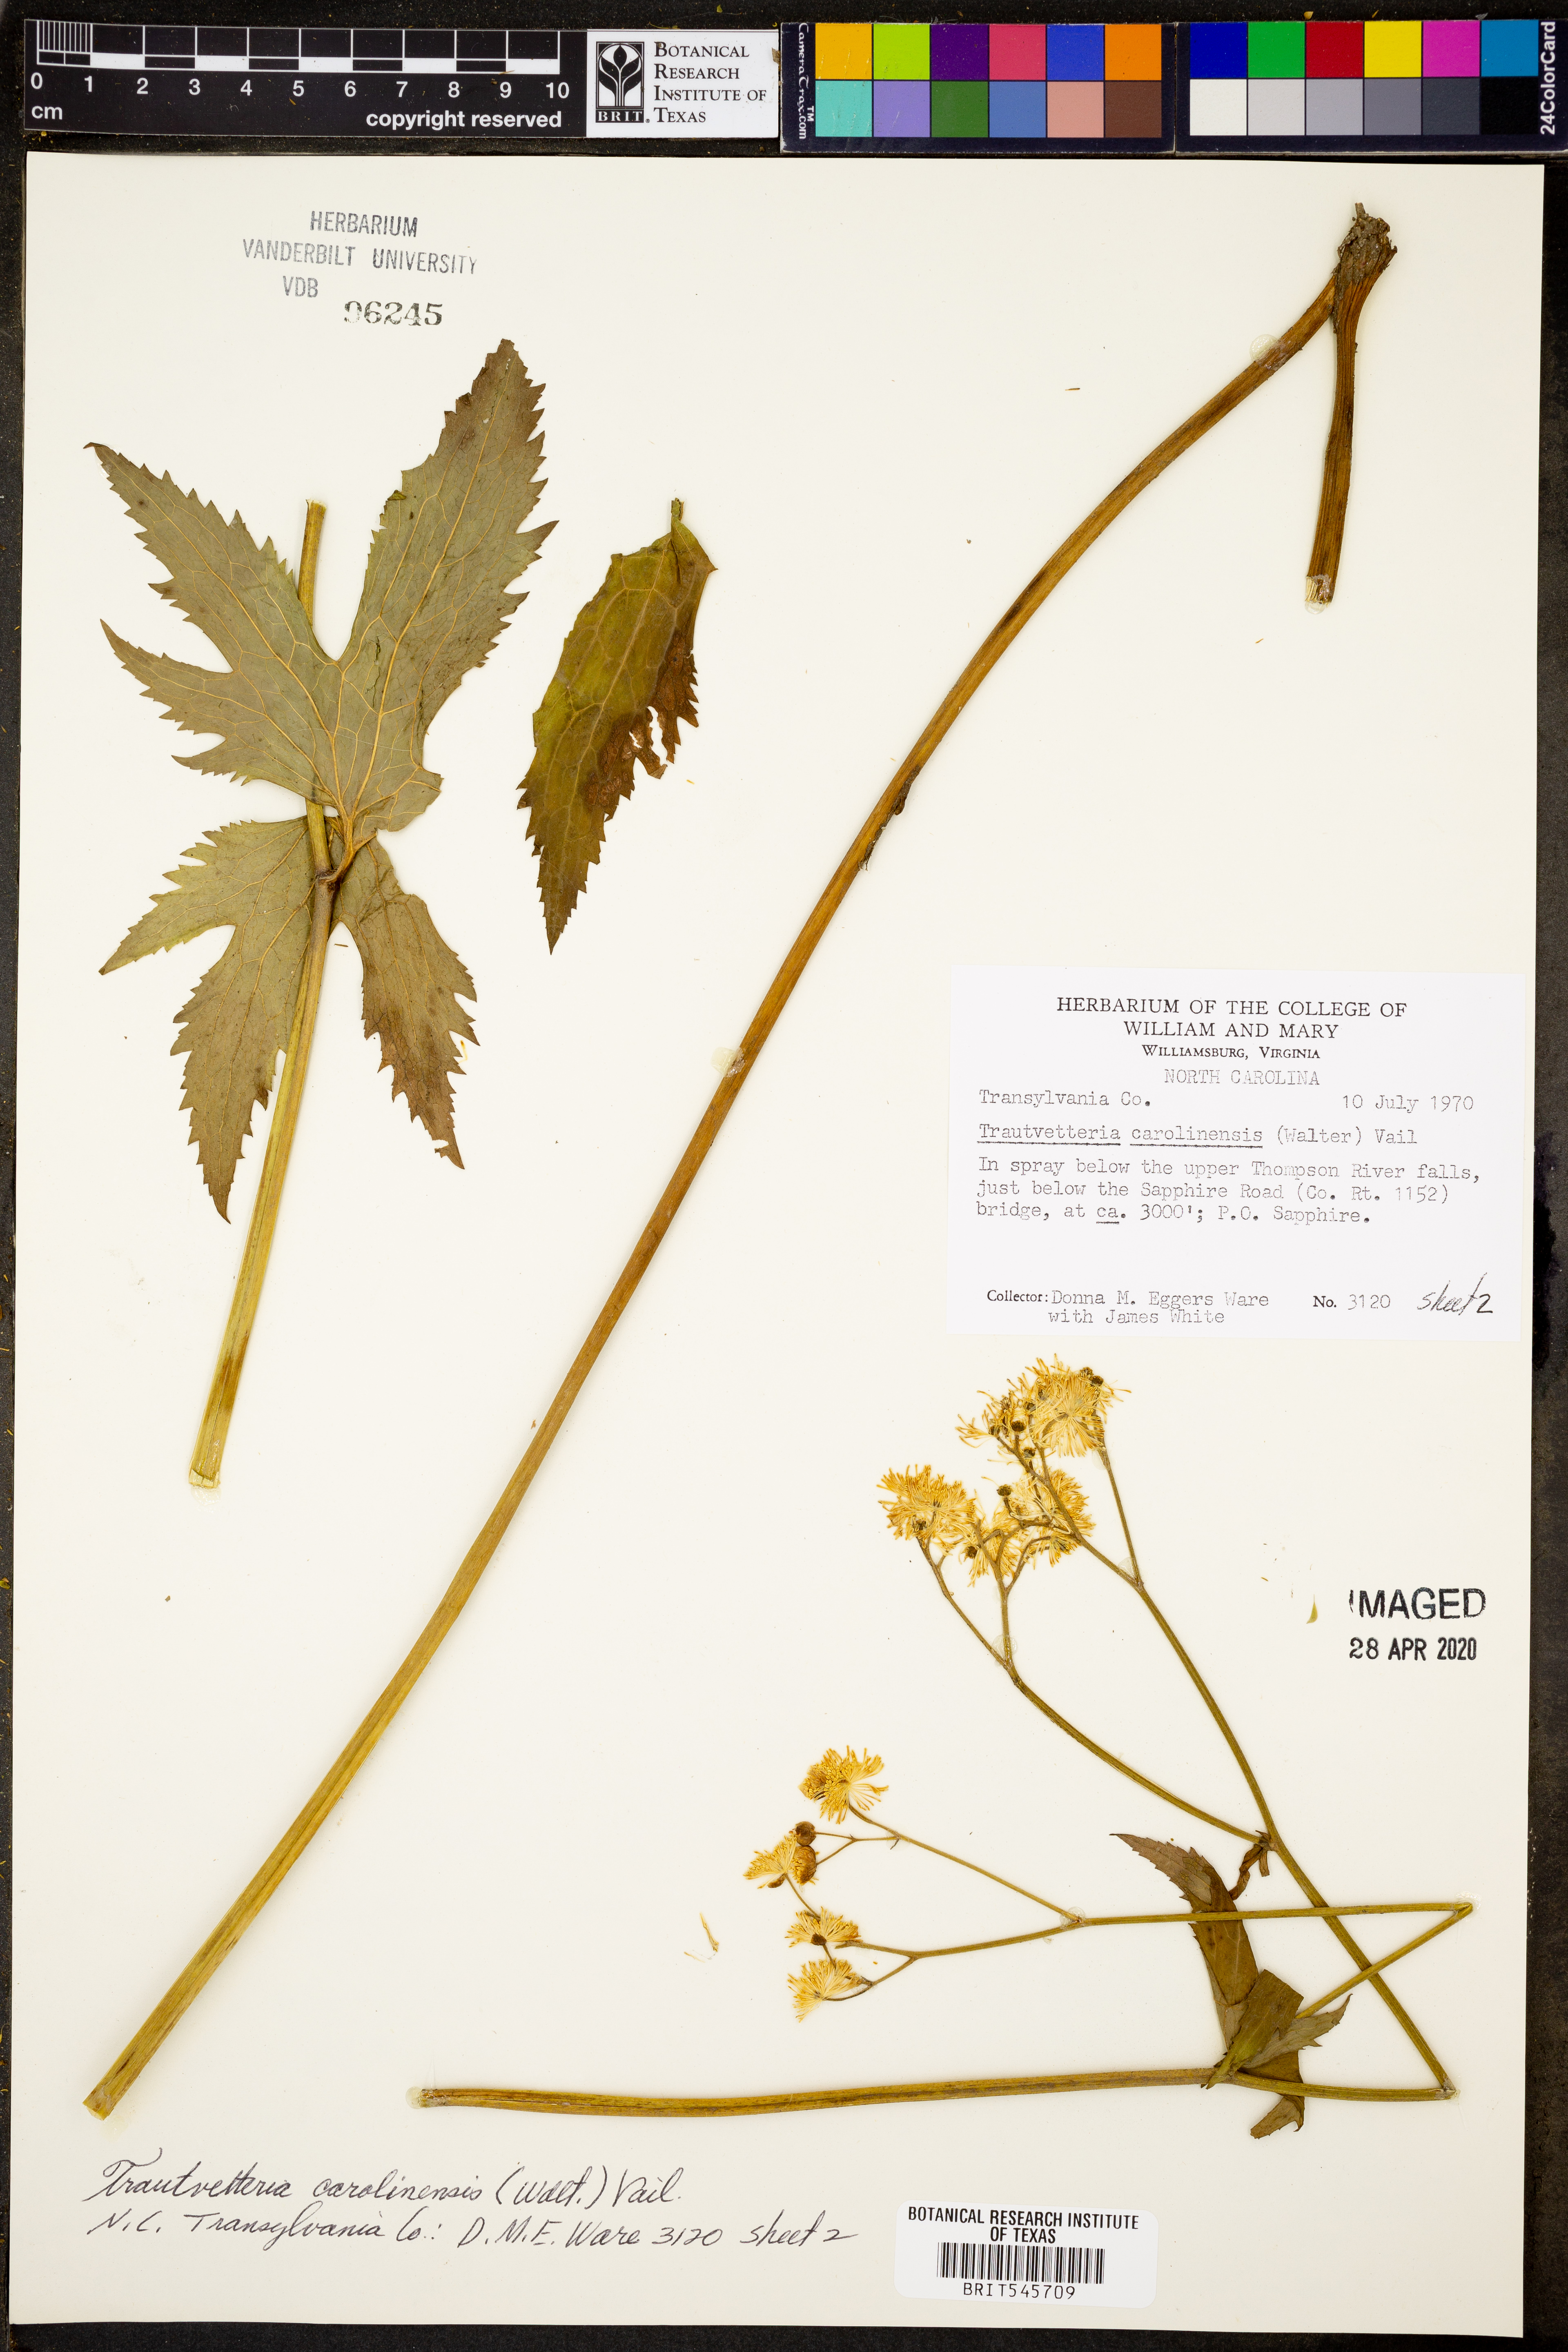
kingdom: Plantae
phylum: Tracheophyta
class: Magnoliopsida
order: Ranunculales
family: Ranunculaceae
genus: Trautvetteria
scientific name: Trautvetteria carolinensis
